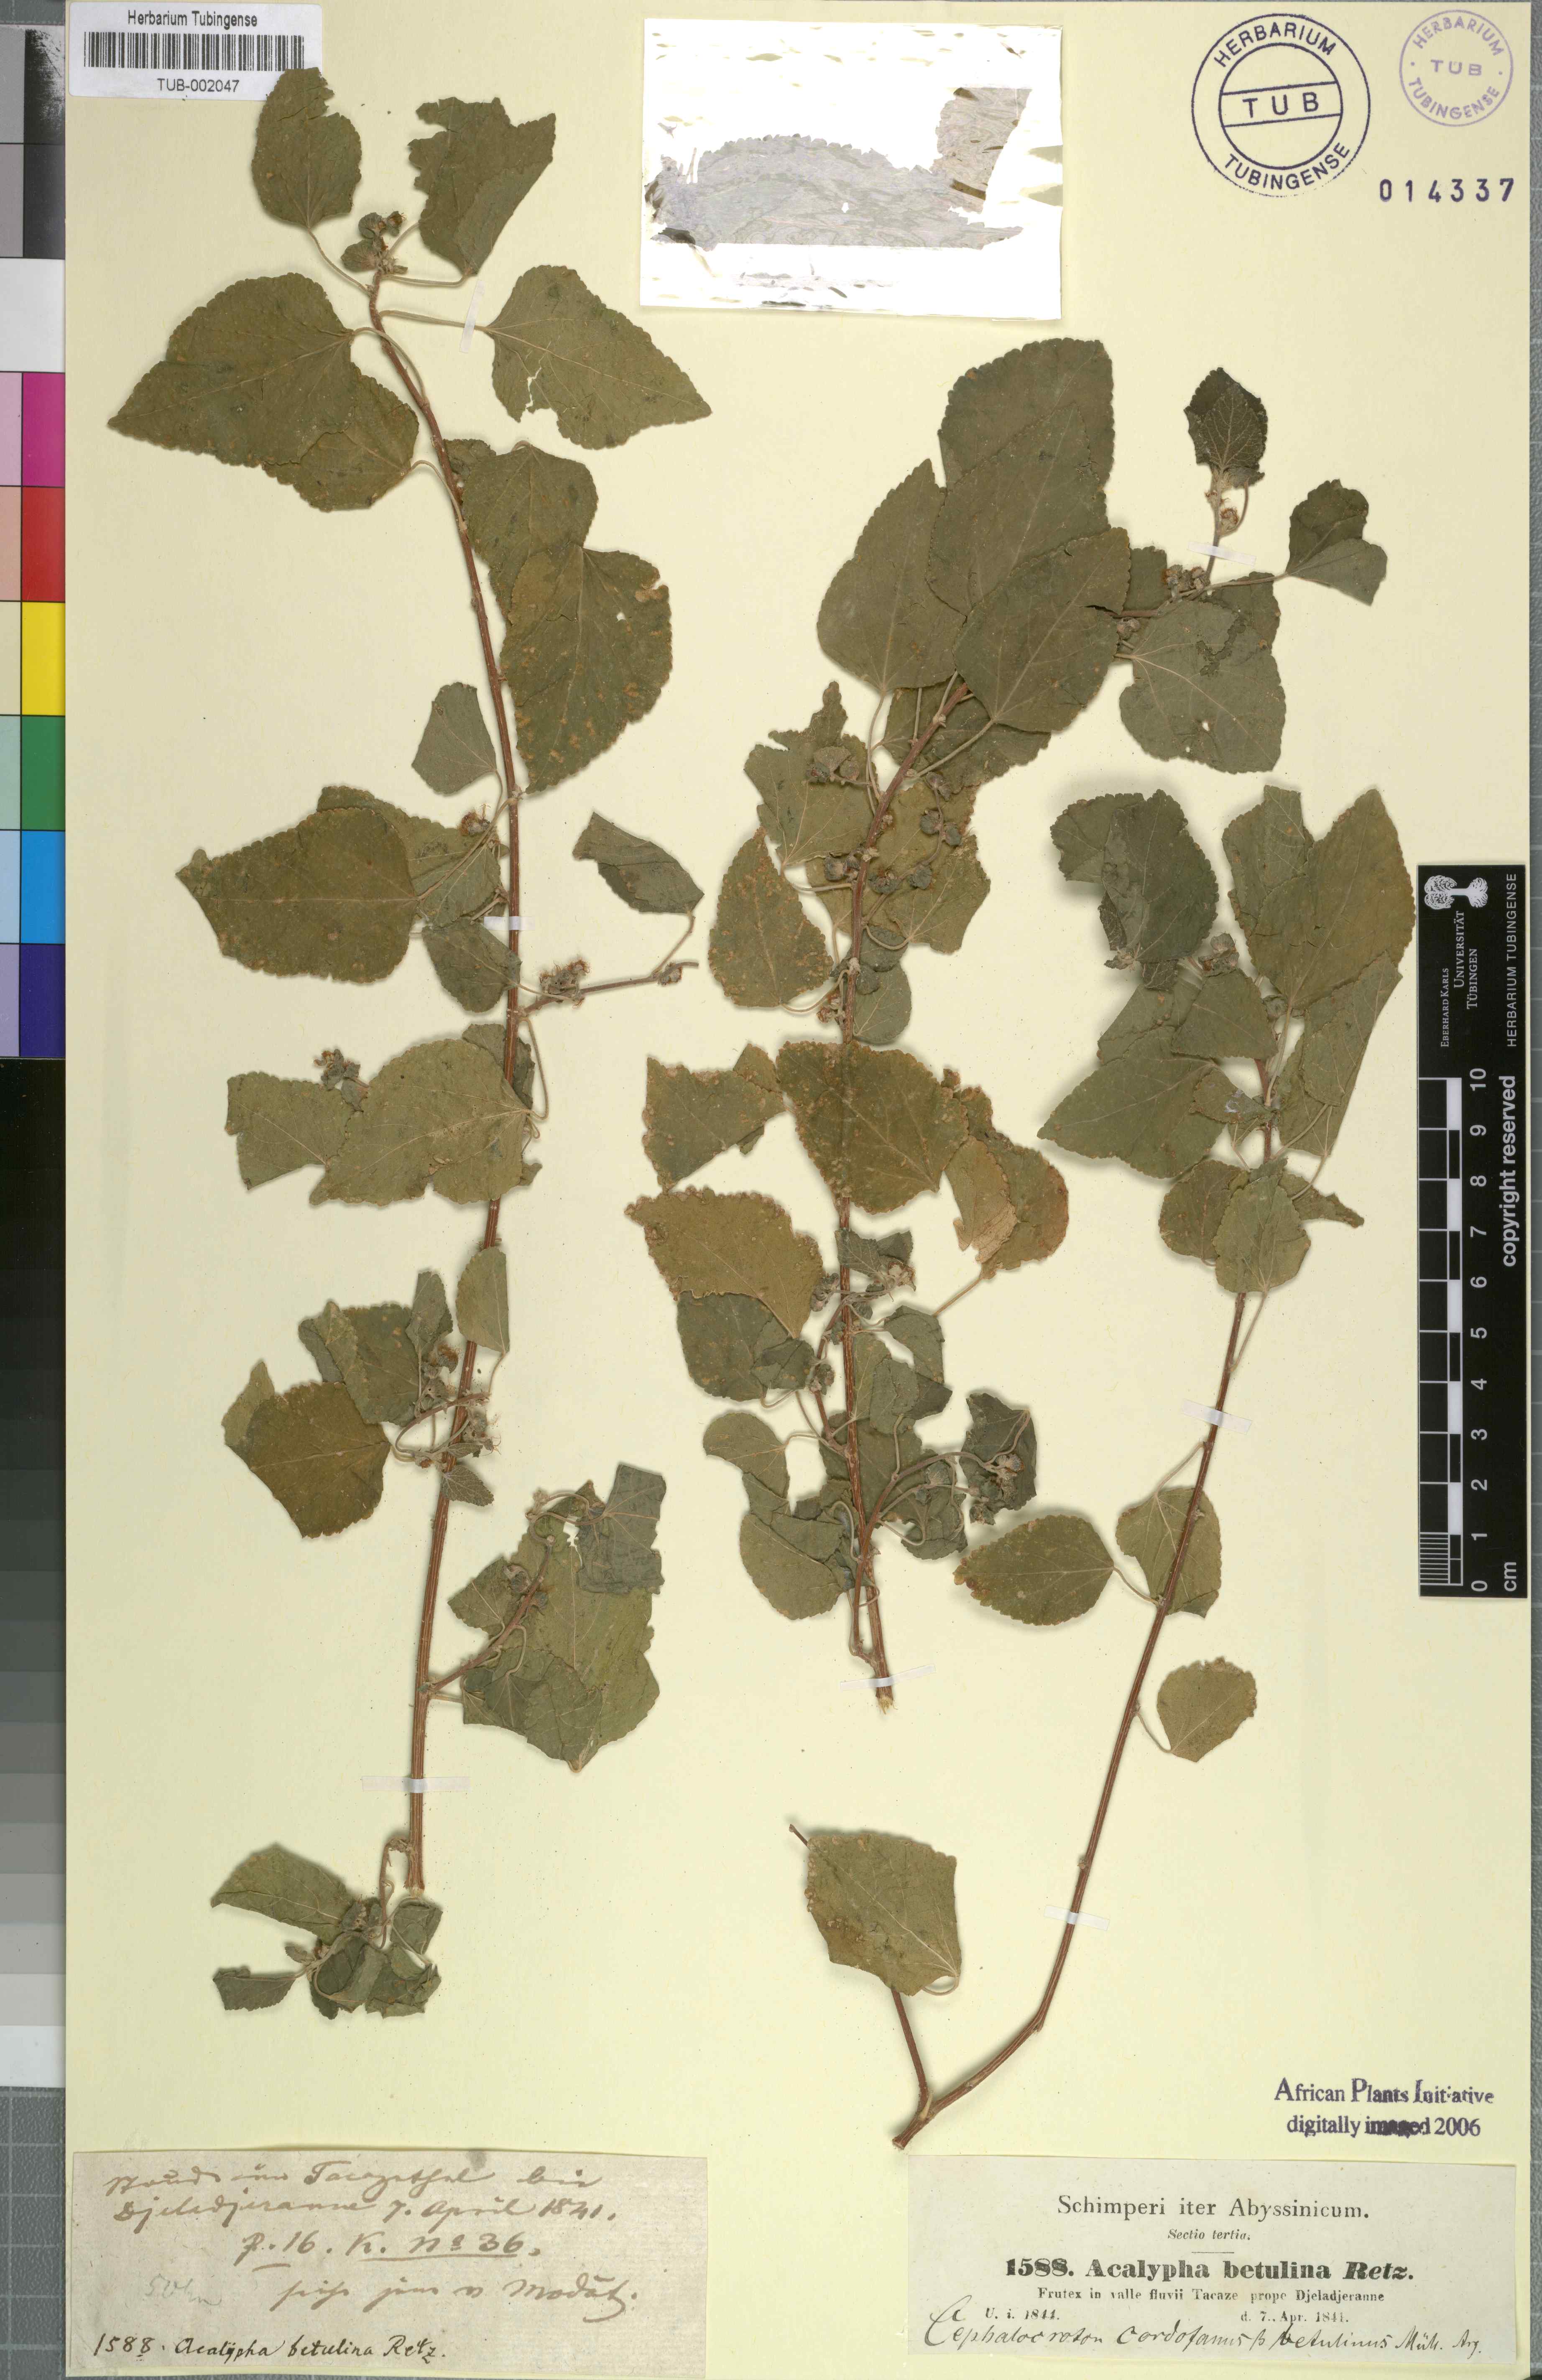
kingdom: Plantae
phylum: Tracheophyta
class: Magnoliopsida
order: Malpighiales
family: Euphorbiaceae
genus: Acalypha
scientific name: Acalypha fruticosa
